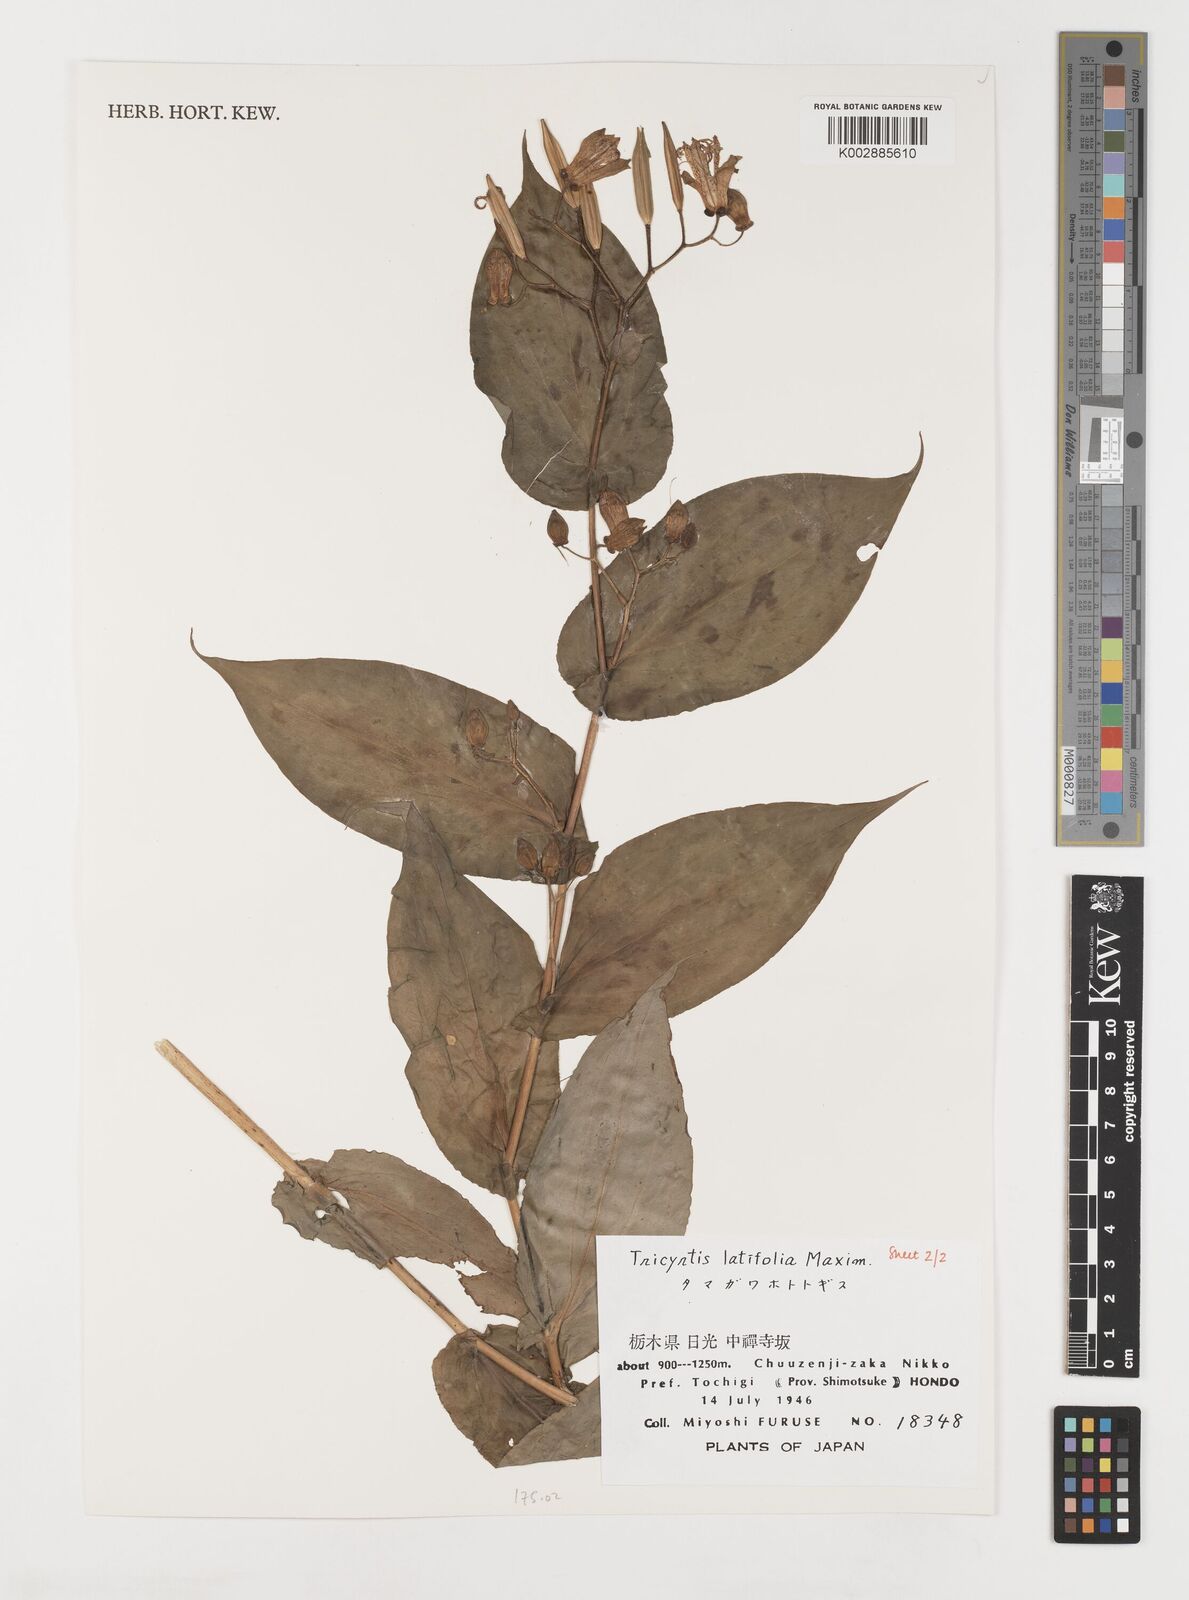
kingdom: Plantae
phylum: Tracheophyta
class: Liliopsida
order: Liliales
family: Liliaceae
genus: Tricyrtis
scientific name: Tricyrtis latifolia
